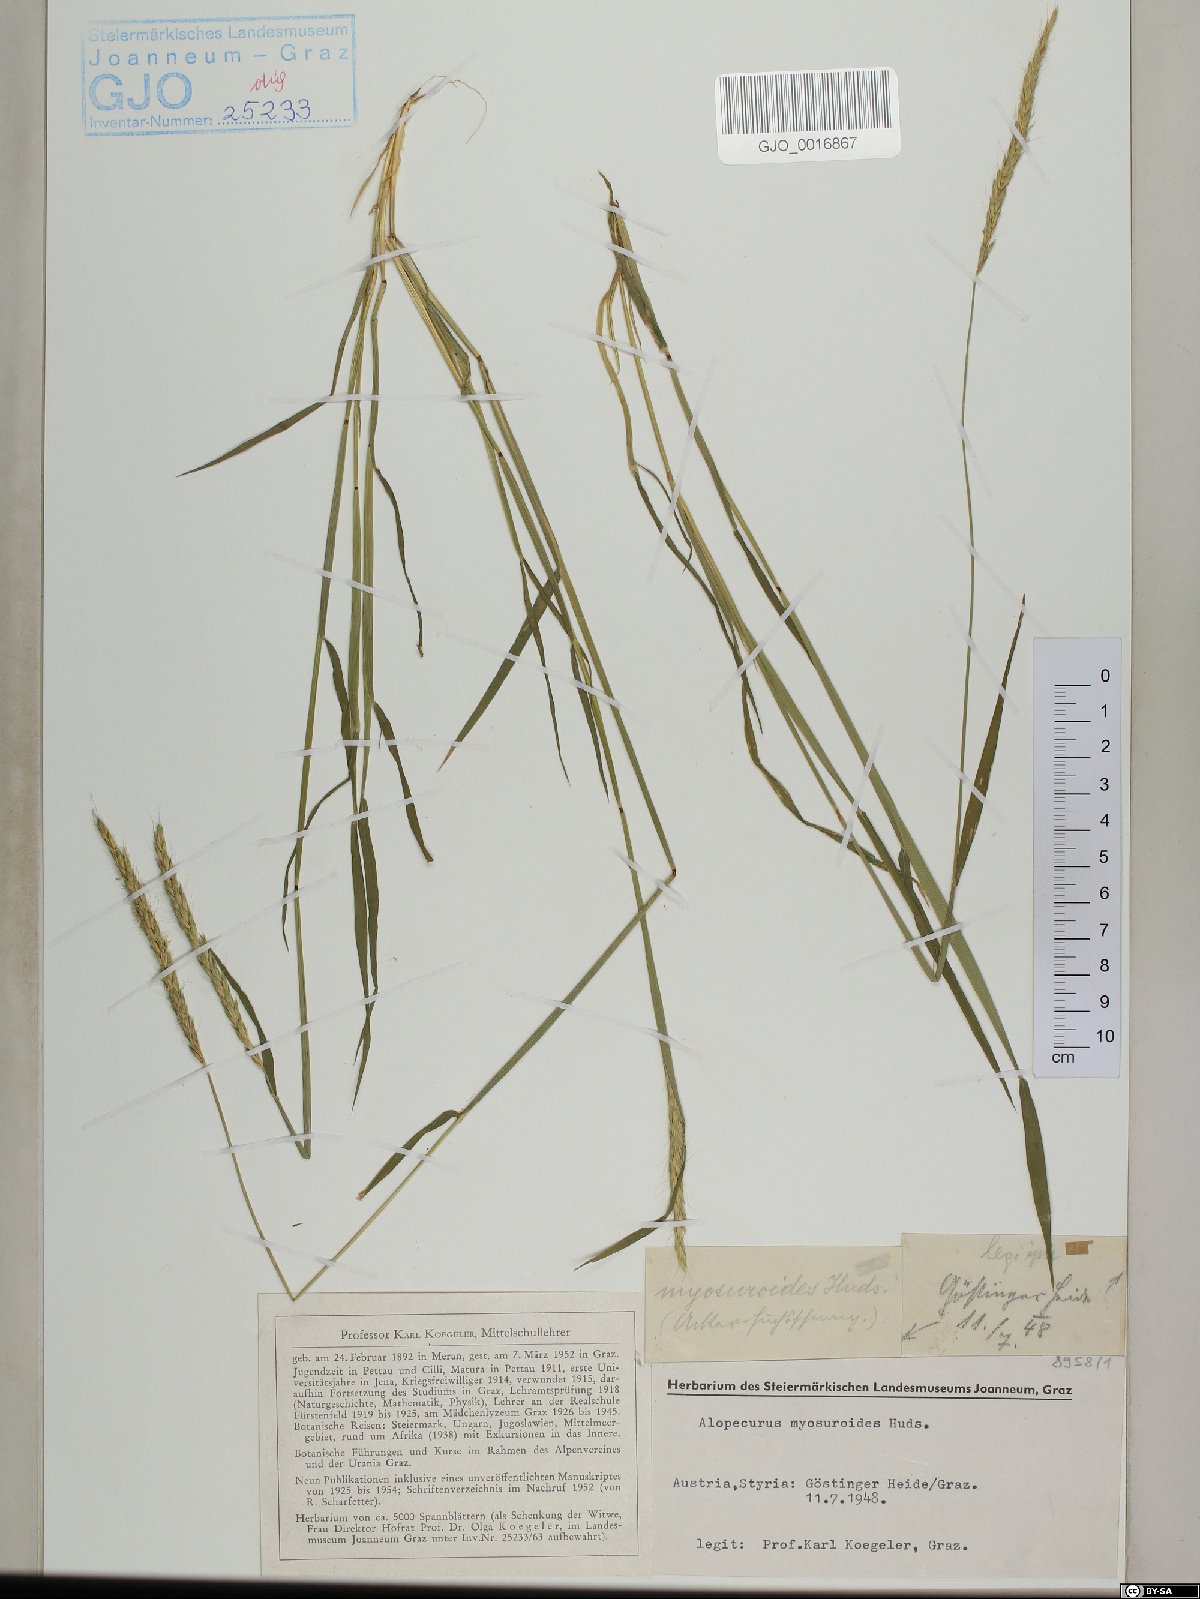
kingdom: Plantae
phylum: Tracheophyta
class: Liliopsida
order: Poales
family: Poaceae
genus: Alopecurus
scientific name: Alopecurus myosuroides
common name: Black-grass
